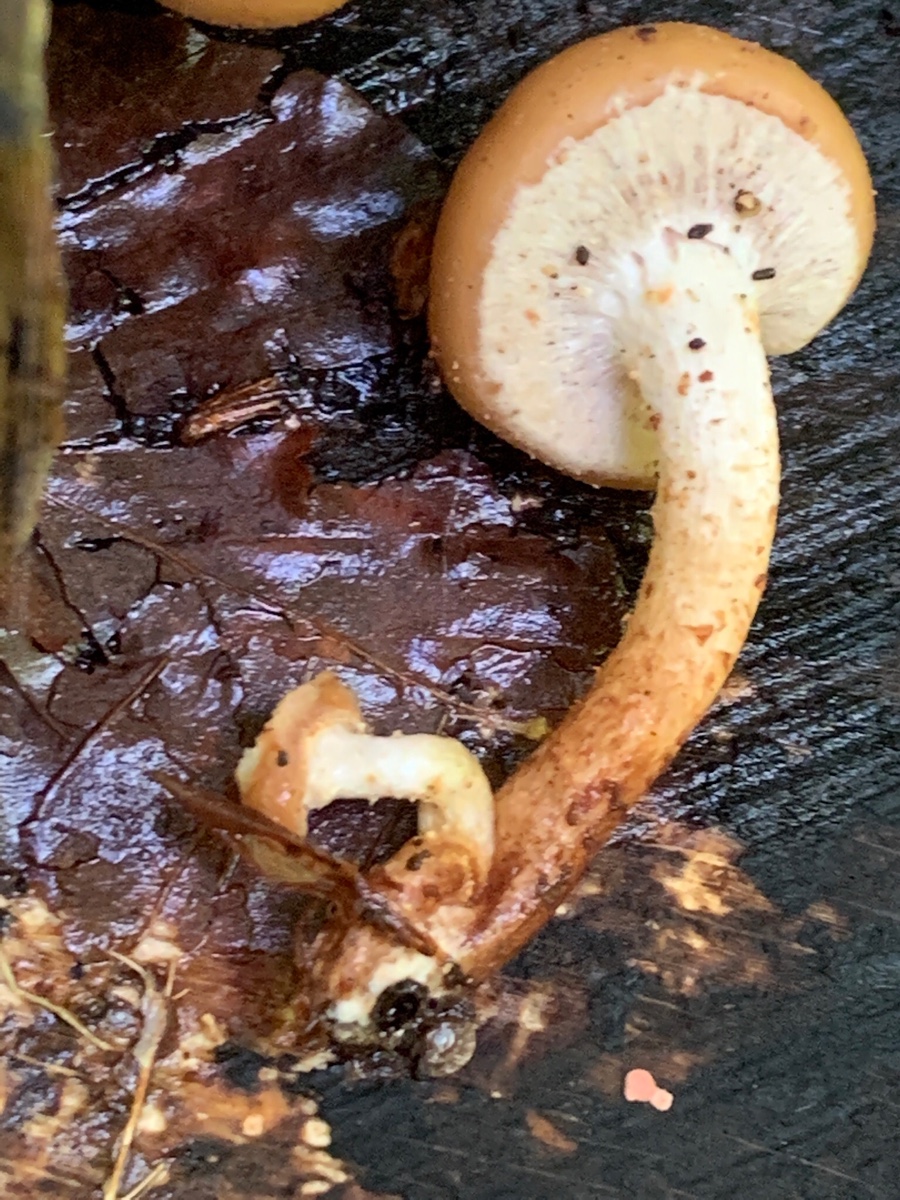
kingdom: Fungi
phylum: Basidiomycota
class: Agaricomycetes
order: Agaricales
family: Strophariaceae
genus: Kuehneromyces
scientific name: Kuehneromyces mutabilis
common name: foranderlig skælhat
